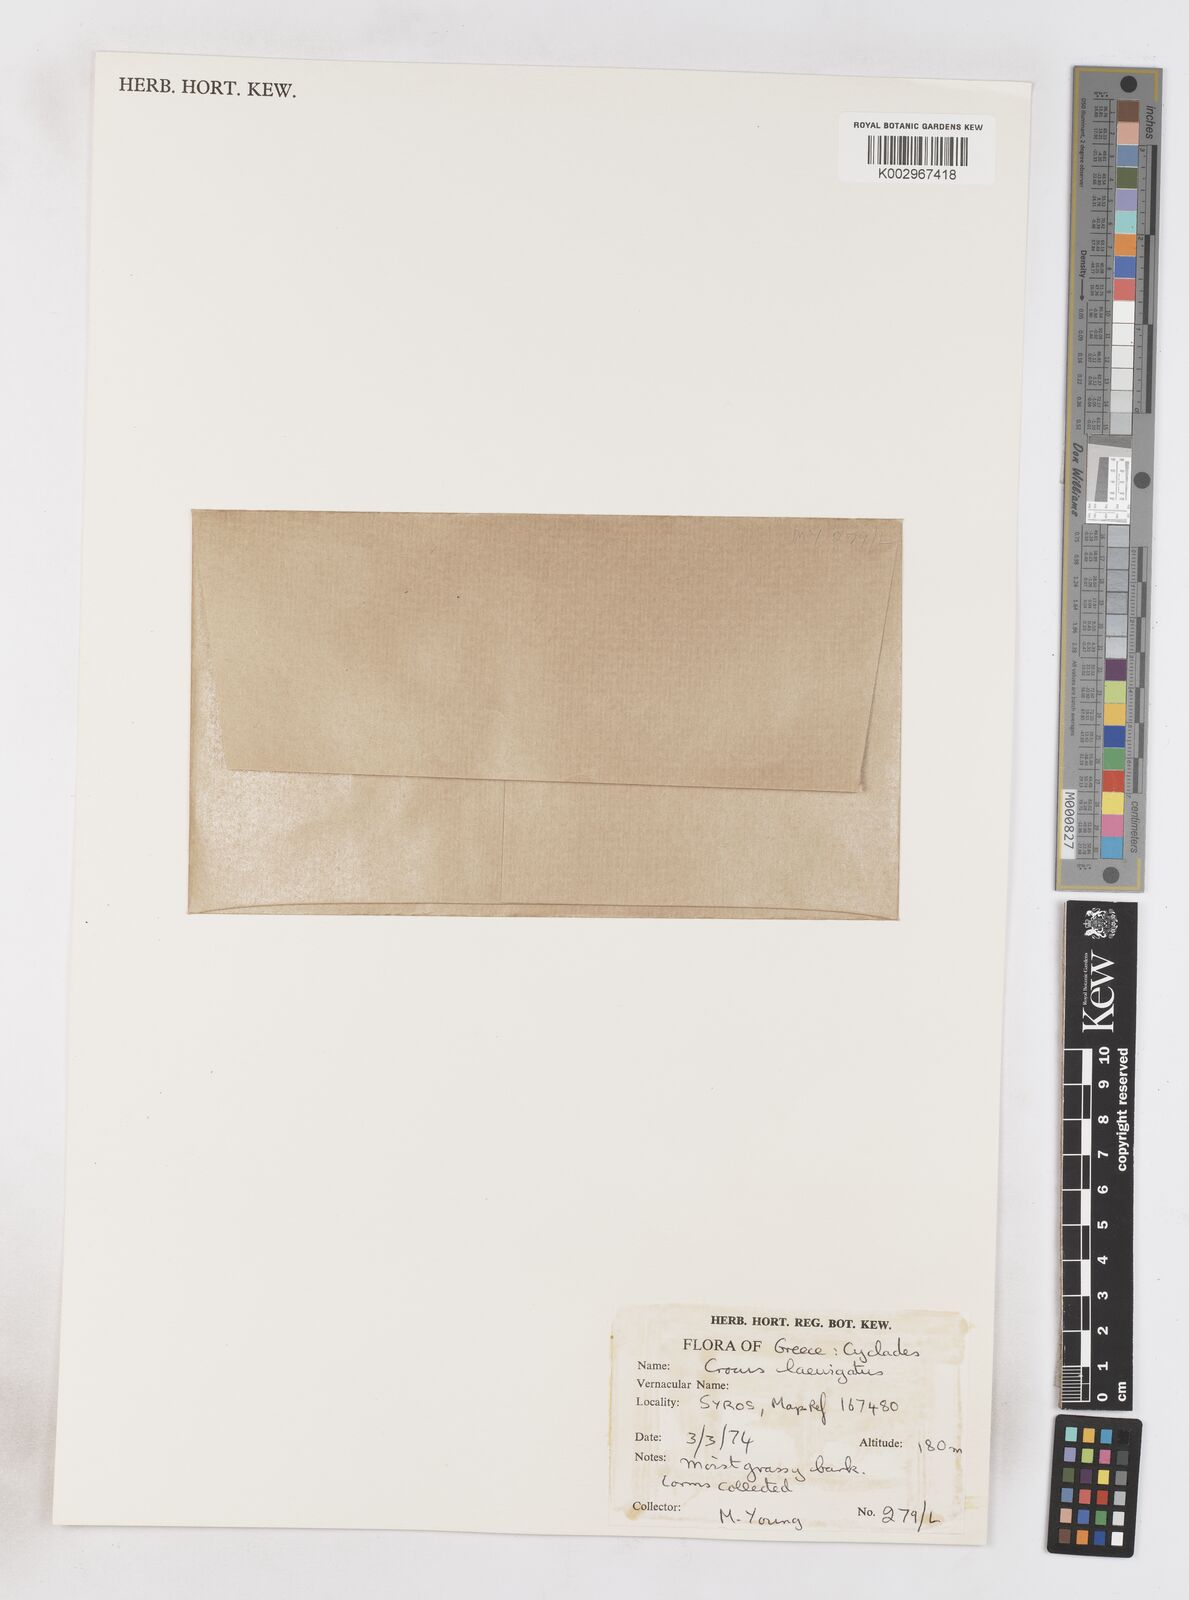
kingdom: Plantae
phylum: Tracheophyta
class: Liliopsida
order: Asparagales
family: Iridaceae
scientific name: Iridaceae
